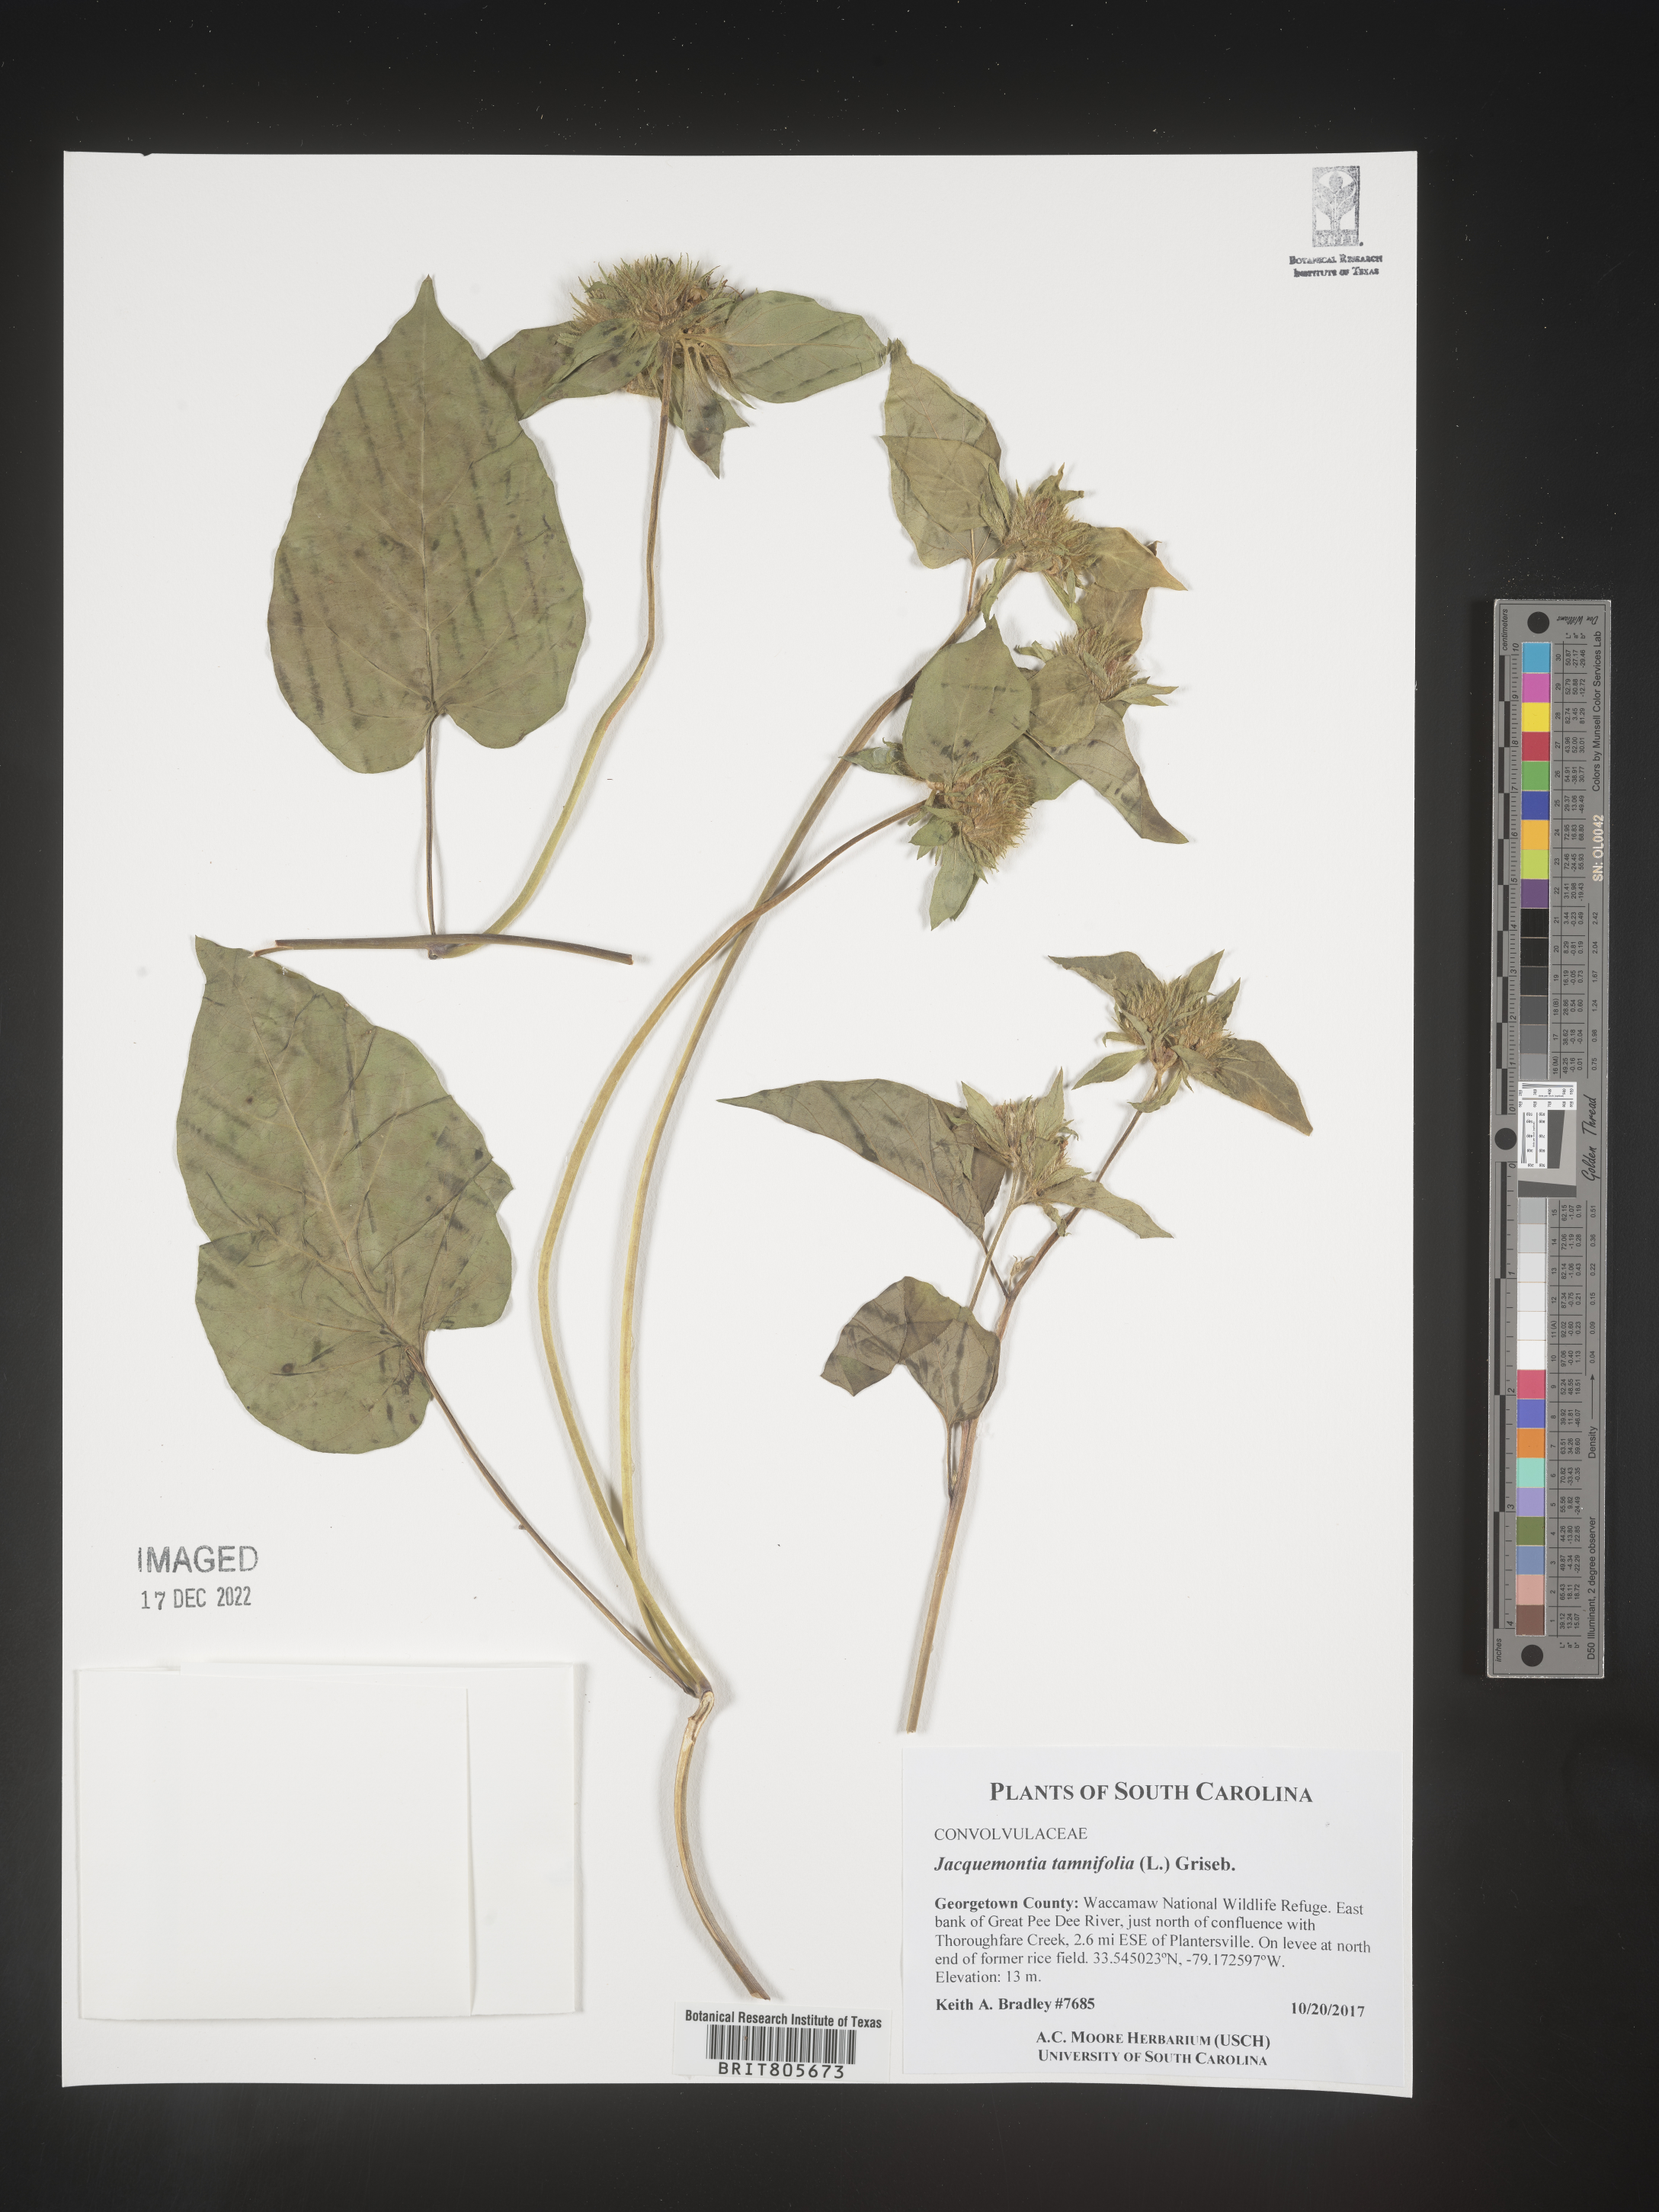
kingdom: Plantae
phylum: Tracheophyta
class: Magnoliopsida
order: Solanales
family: Convolvulaceae
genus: Jacquemontia
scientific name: Jacquemontia tamnifolia
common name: Hairy clustervine
